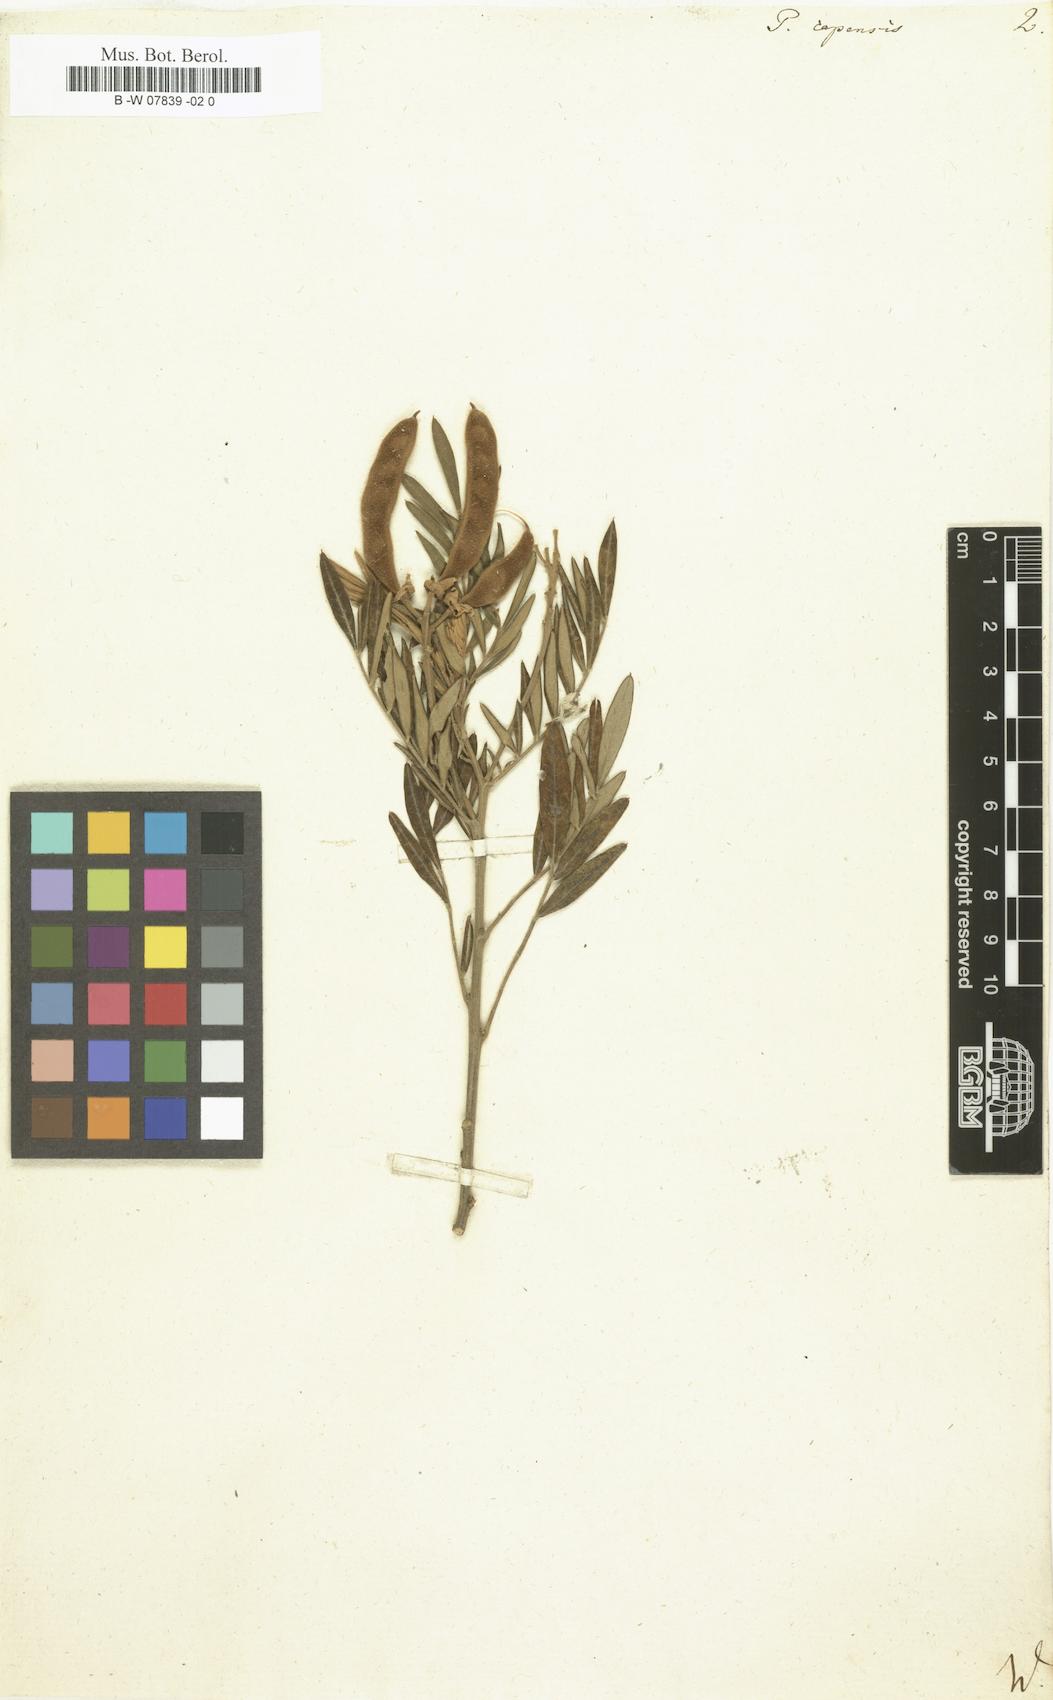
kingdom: Plantae
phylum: Tracheophyta
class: Magnoliopsida
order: Fabales
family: Fabaceae
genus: Virgilia
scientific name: Virgilia oroboides
